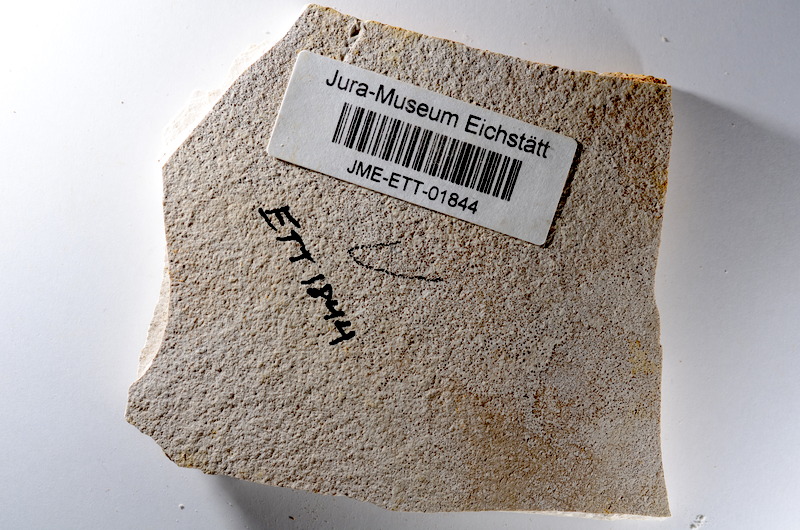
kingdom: Animalia
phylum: Chordata
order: Salmoniformes
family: Orthogonikleithridae
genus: Orthogonikleithrus
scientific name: Orthogonikleithrus hoelli
